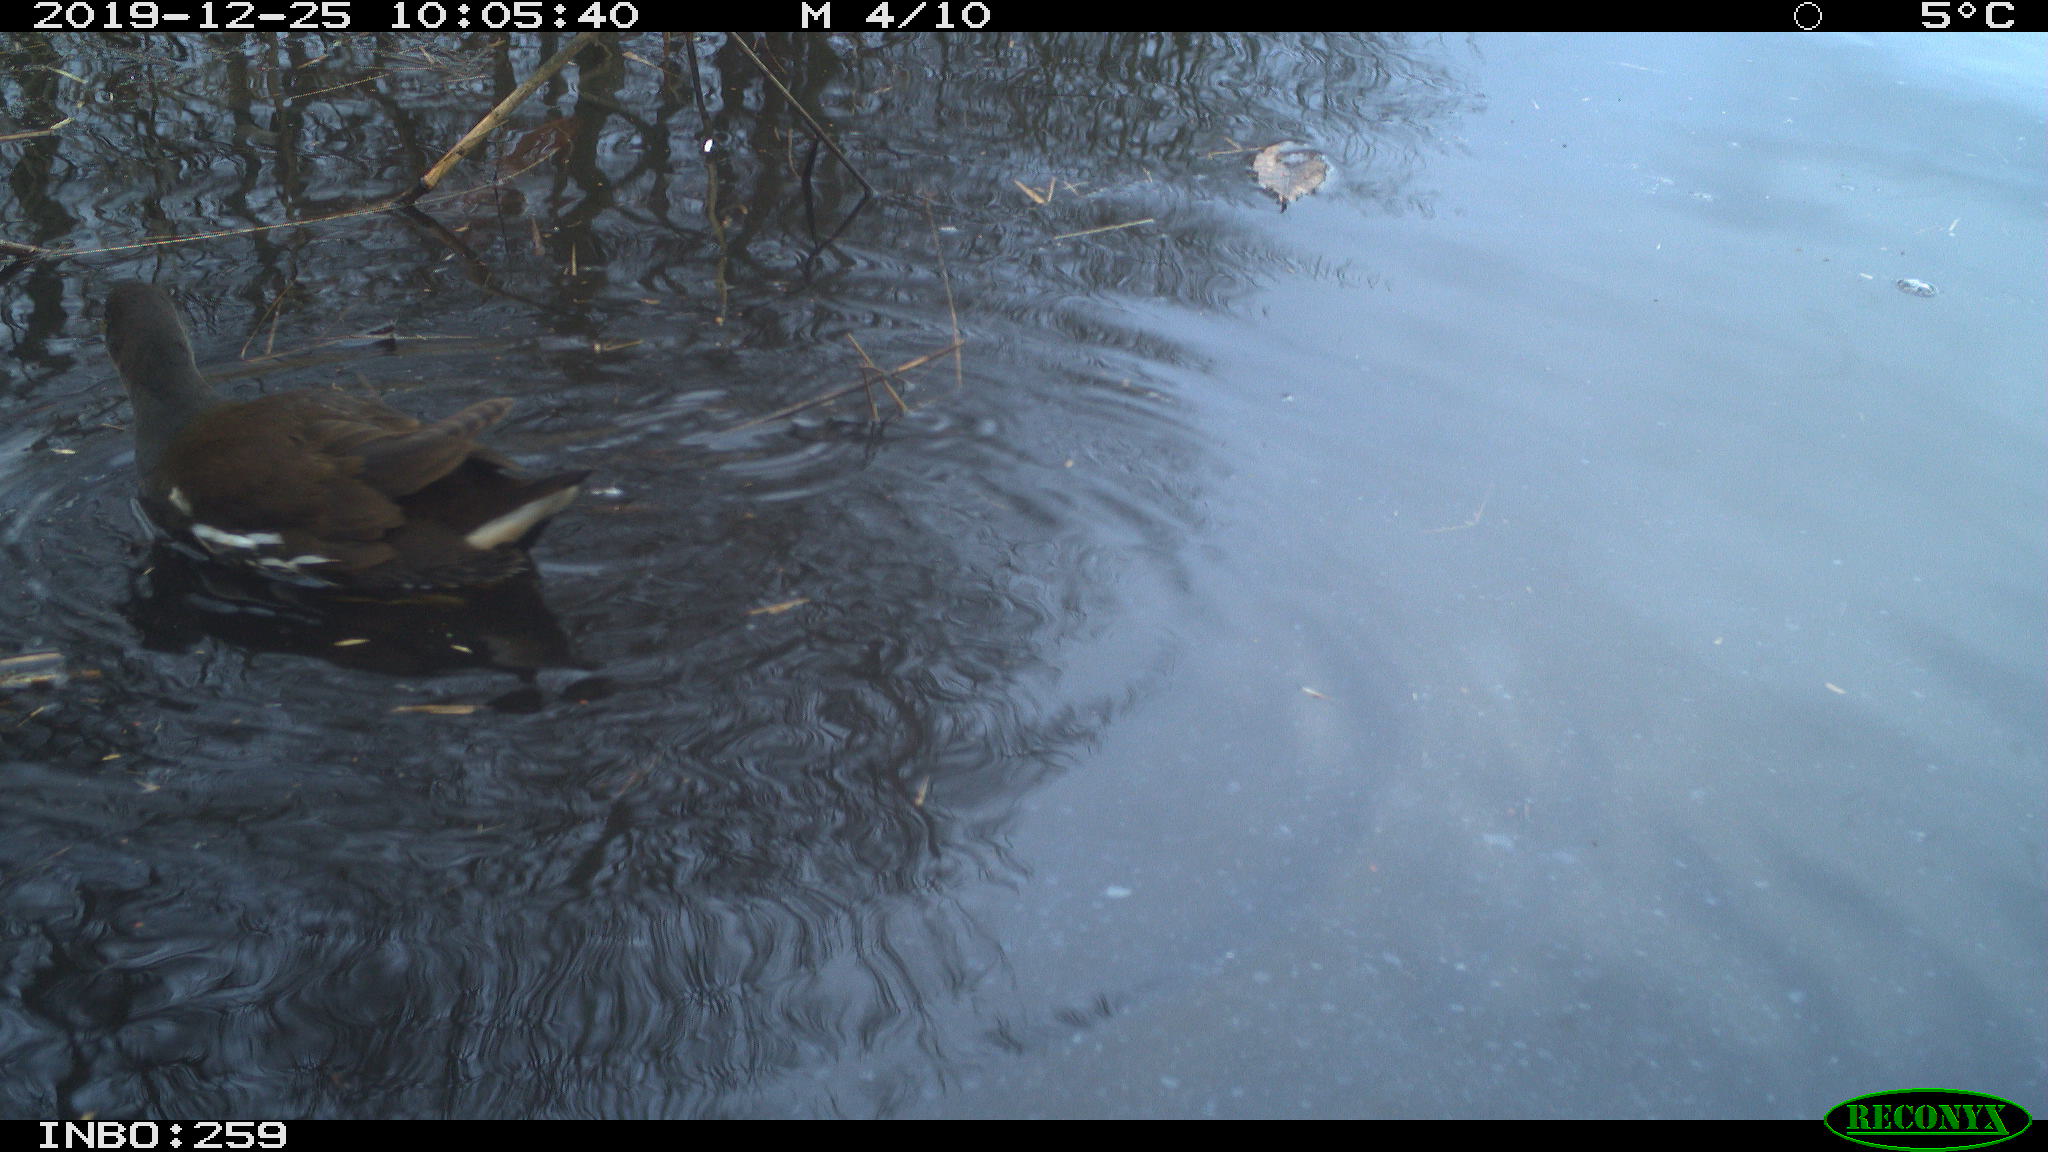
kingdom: Animalia
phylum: Chordata
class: Aves
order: Gruiformes
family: Rallidae
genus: Gallinula
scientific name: Gallinula chloropus
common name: Common moorhen
